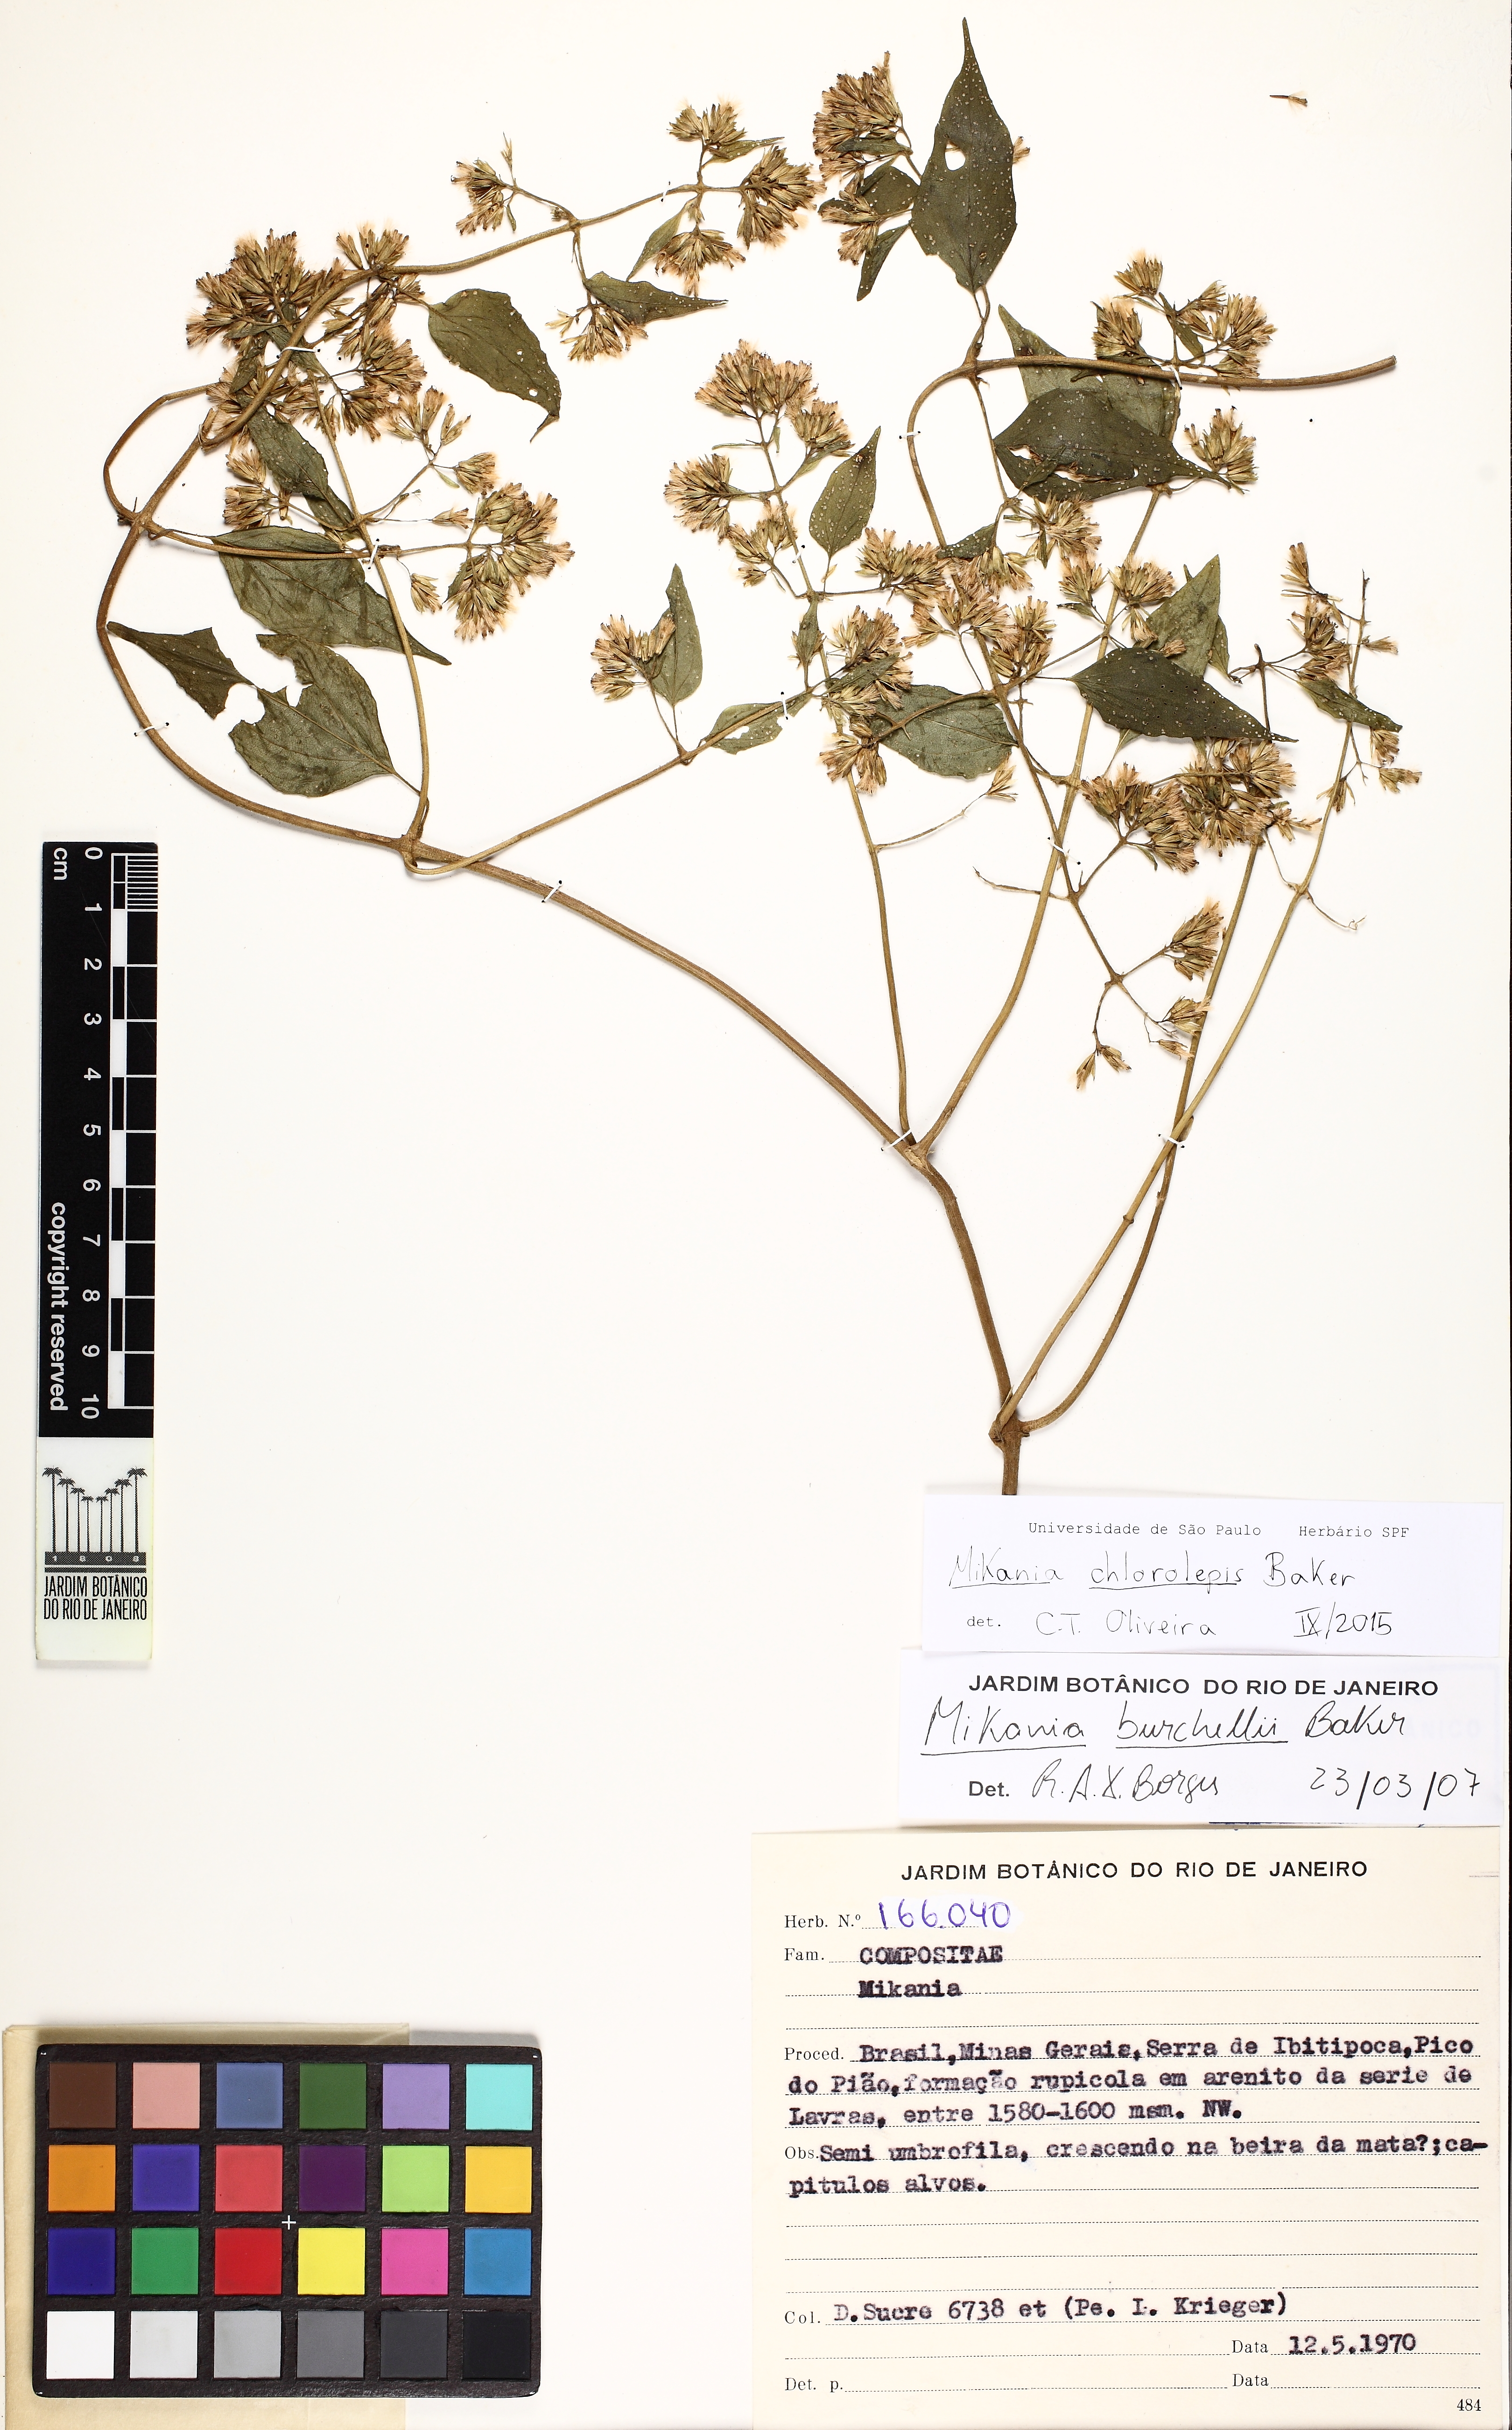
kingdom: Plantae
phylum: Tracheophyta
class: Magnoliopsida
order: Asterales
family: Asteraceae
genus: Mikania
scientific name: Mikania chlorolepis
